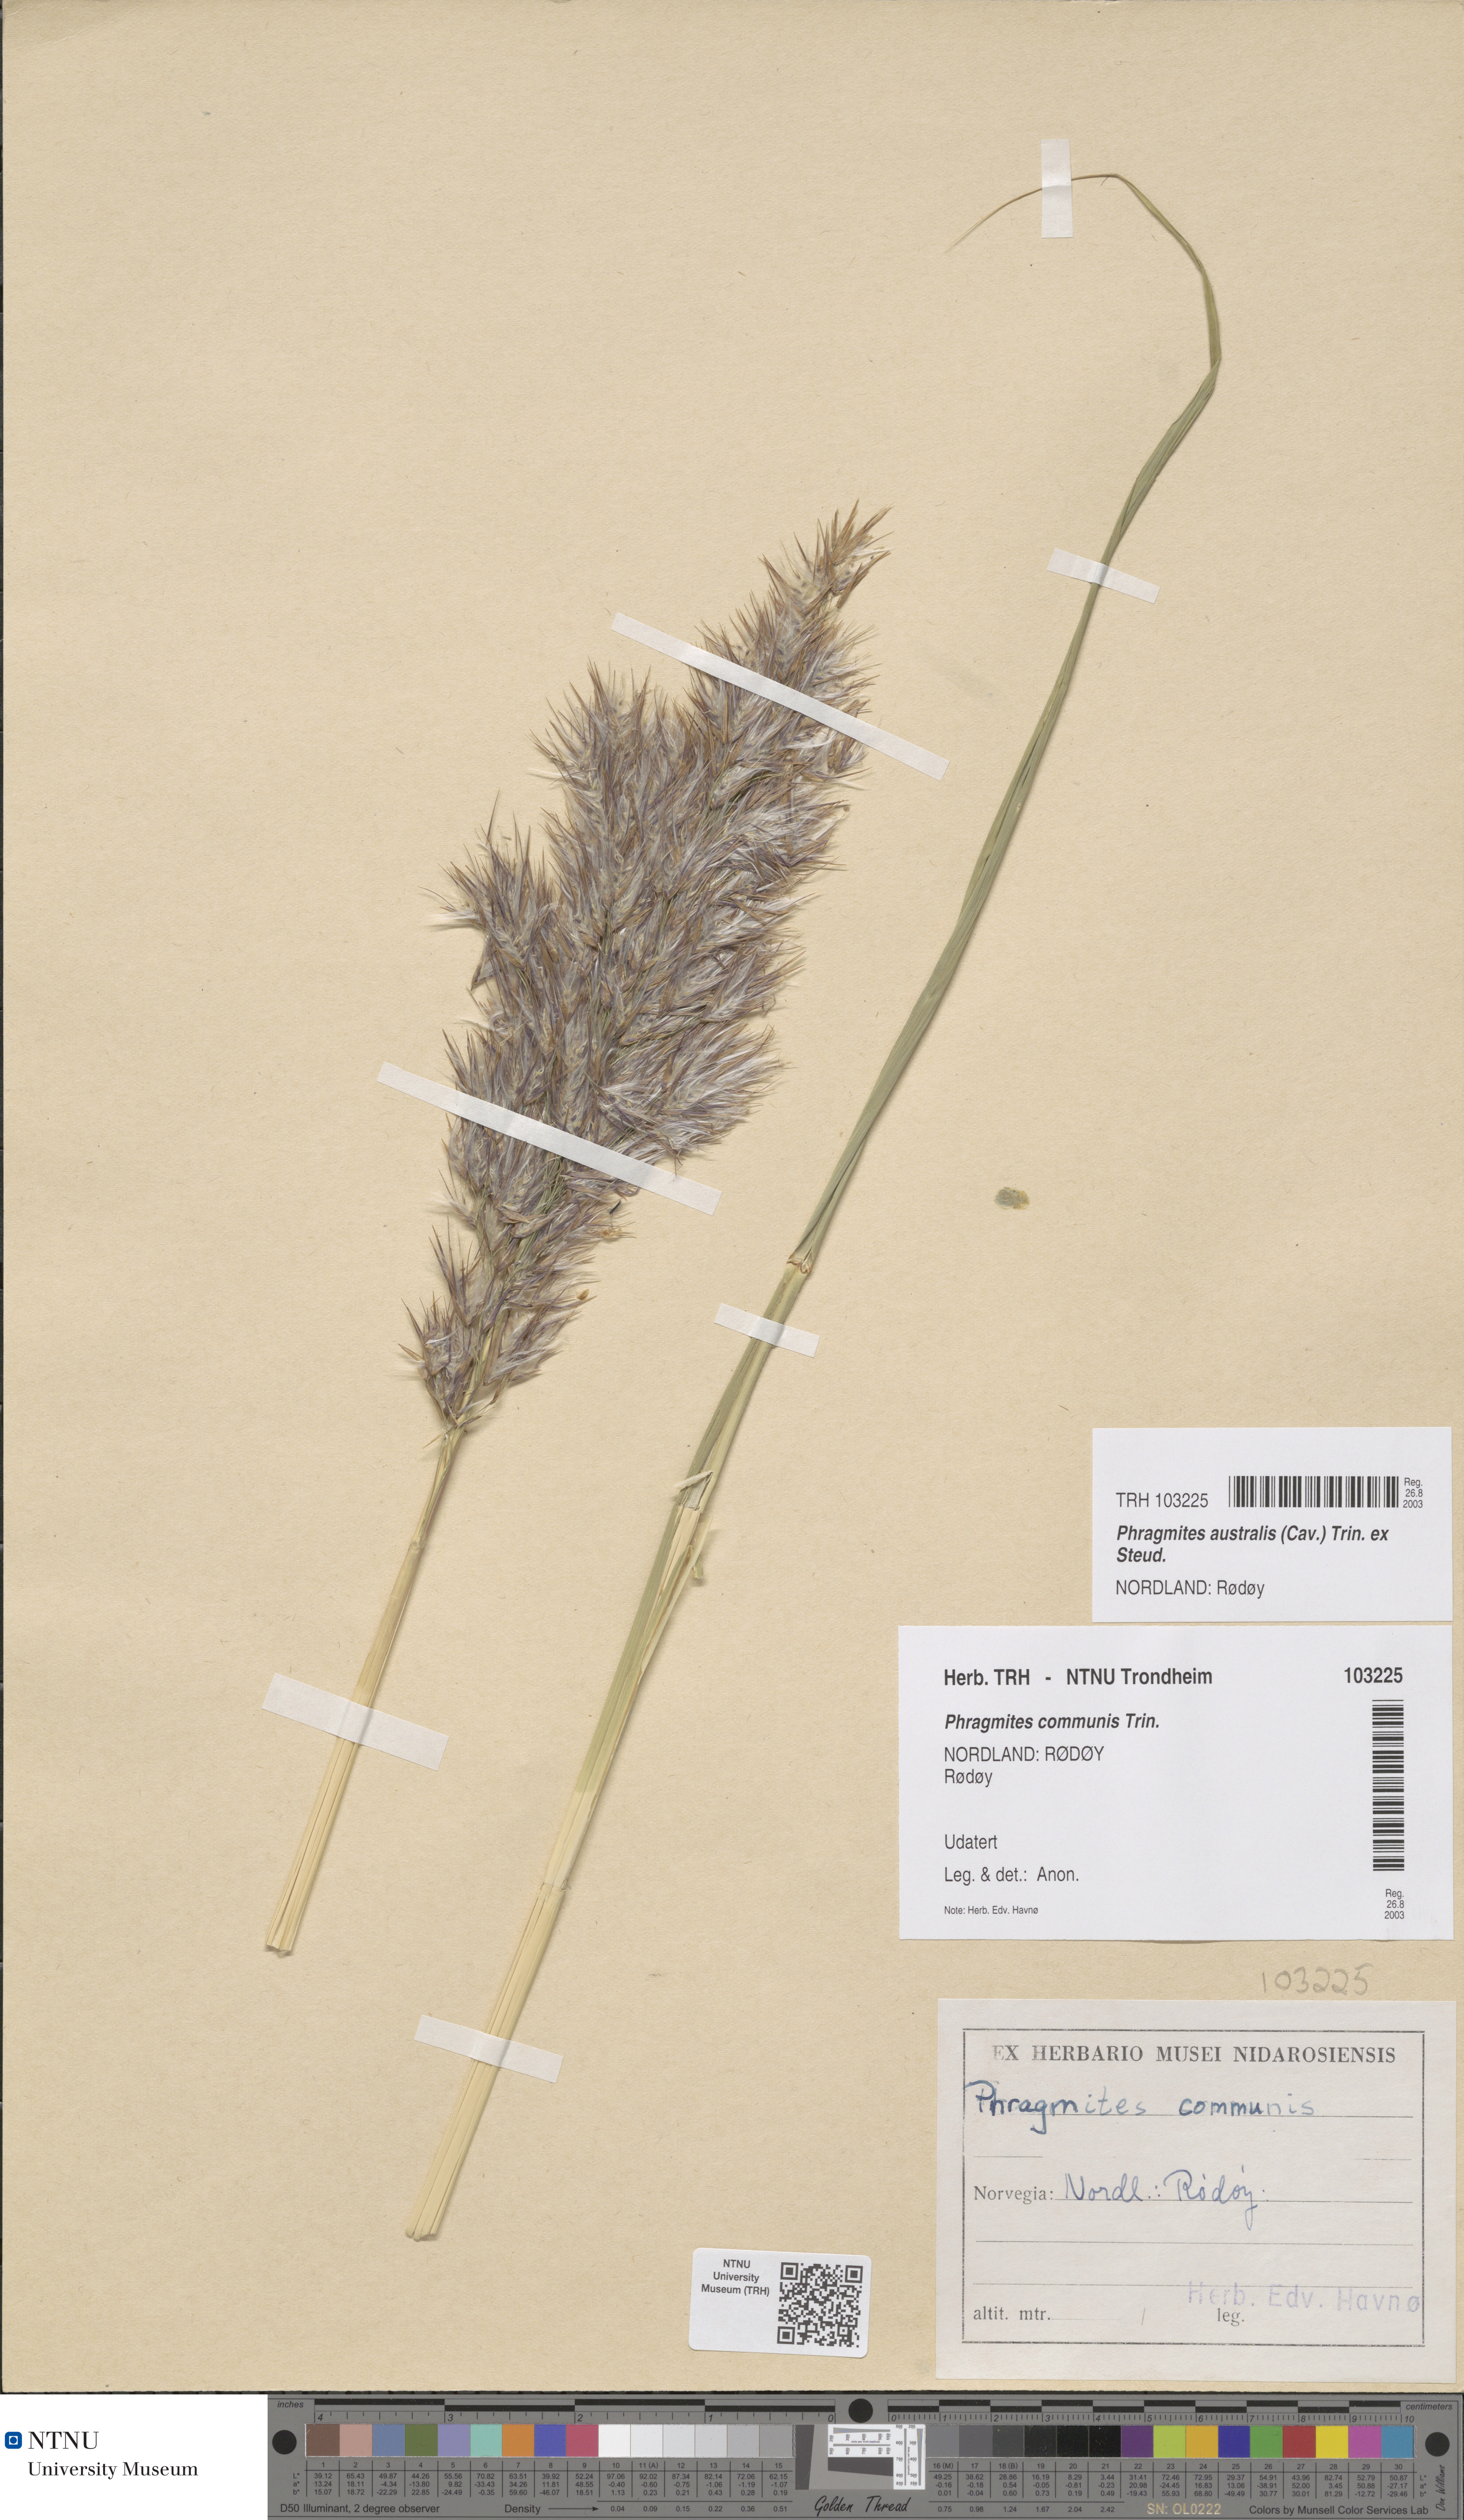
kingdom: Plantae
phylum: Tracheophyta
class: Liliopsida
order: Poales
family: Poaceae
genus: Phragmites
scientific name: Phragmites australis
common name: Common reed
